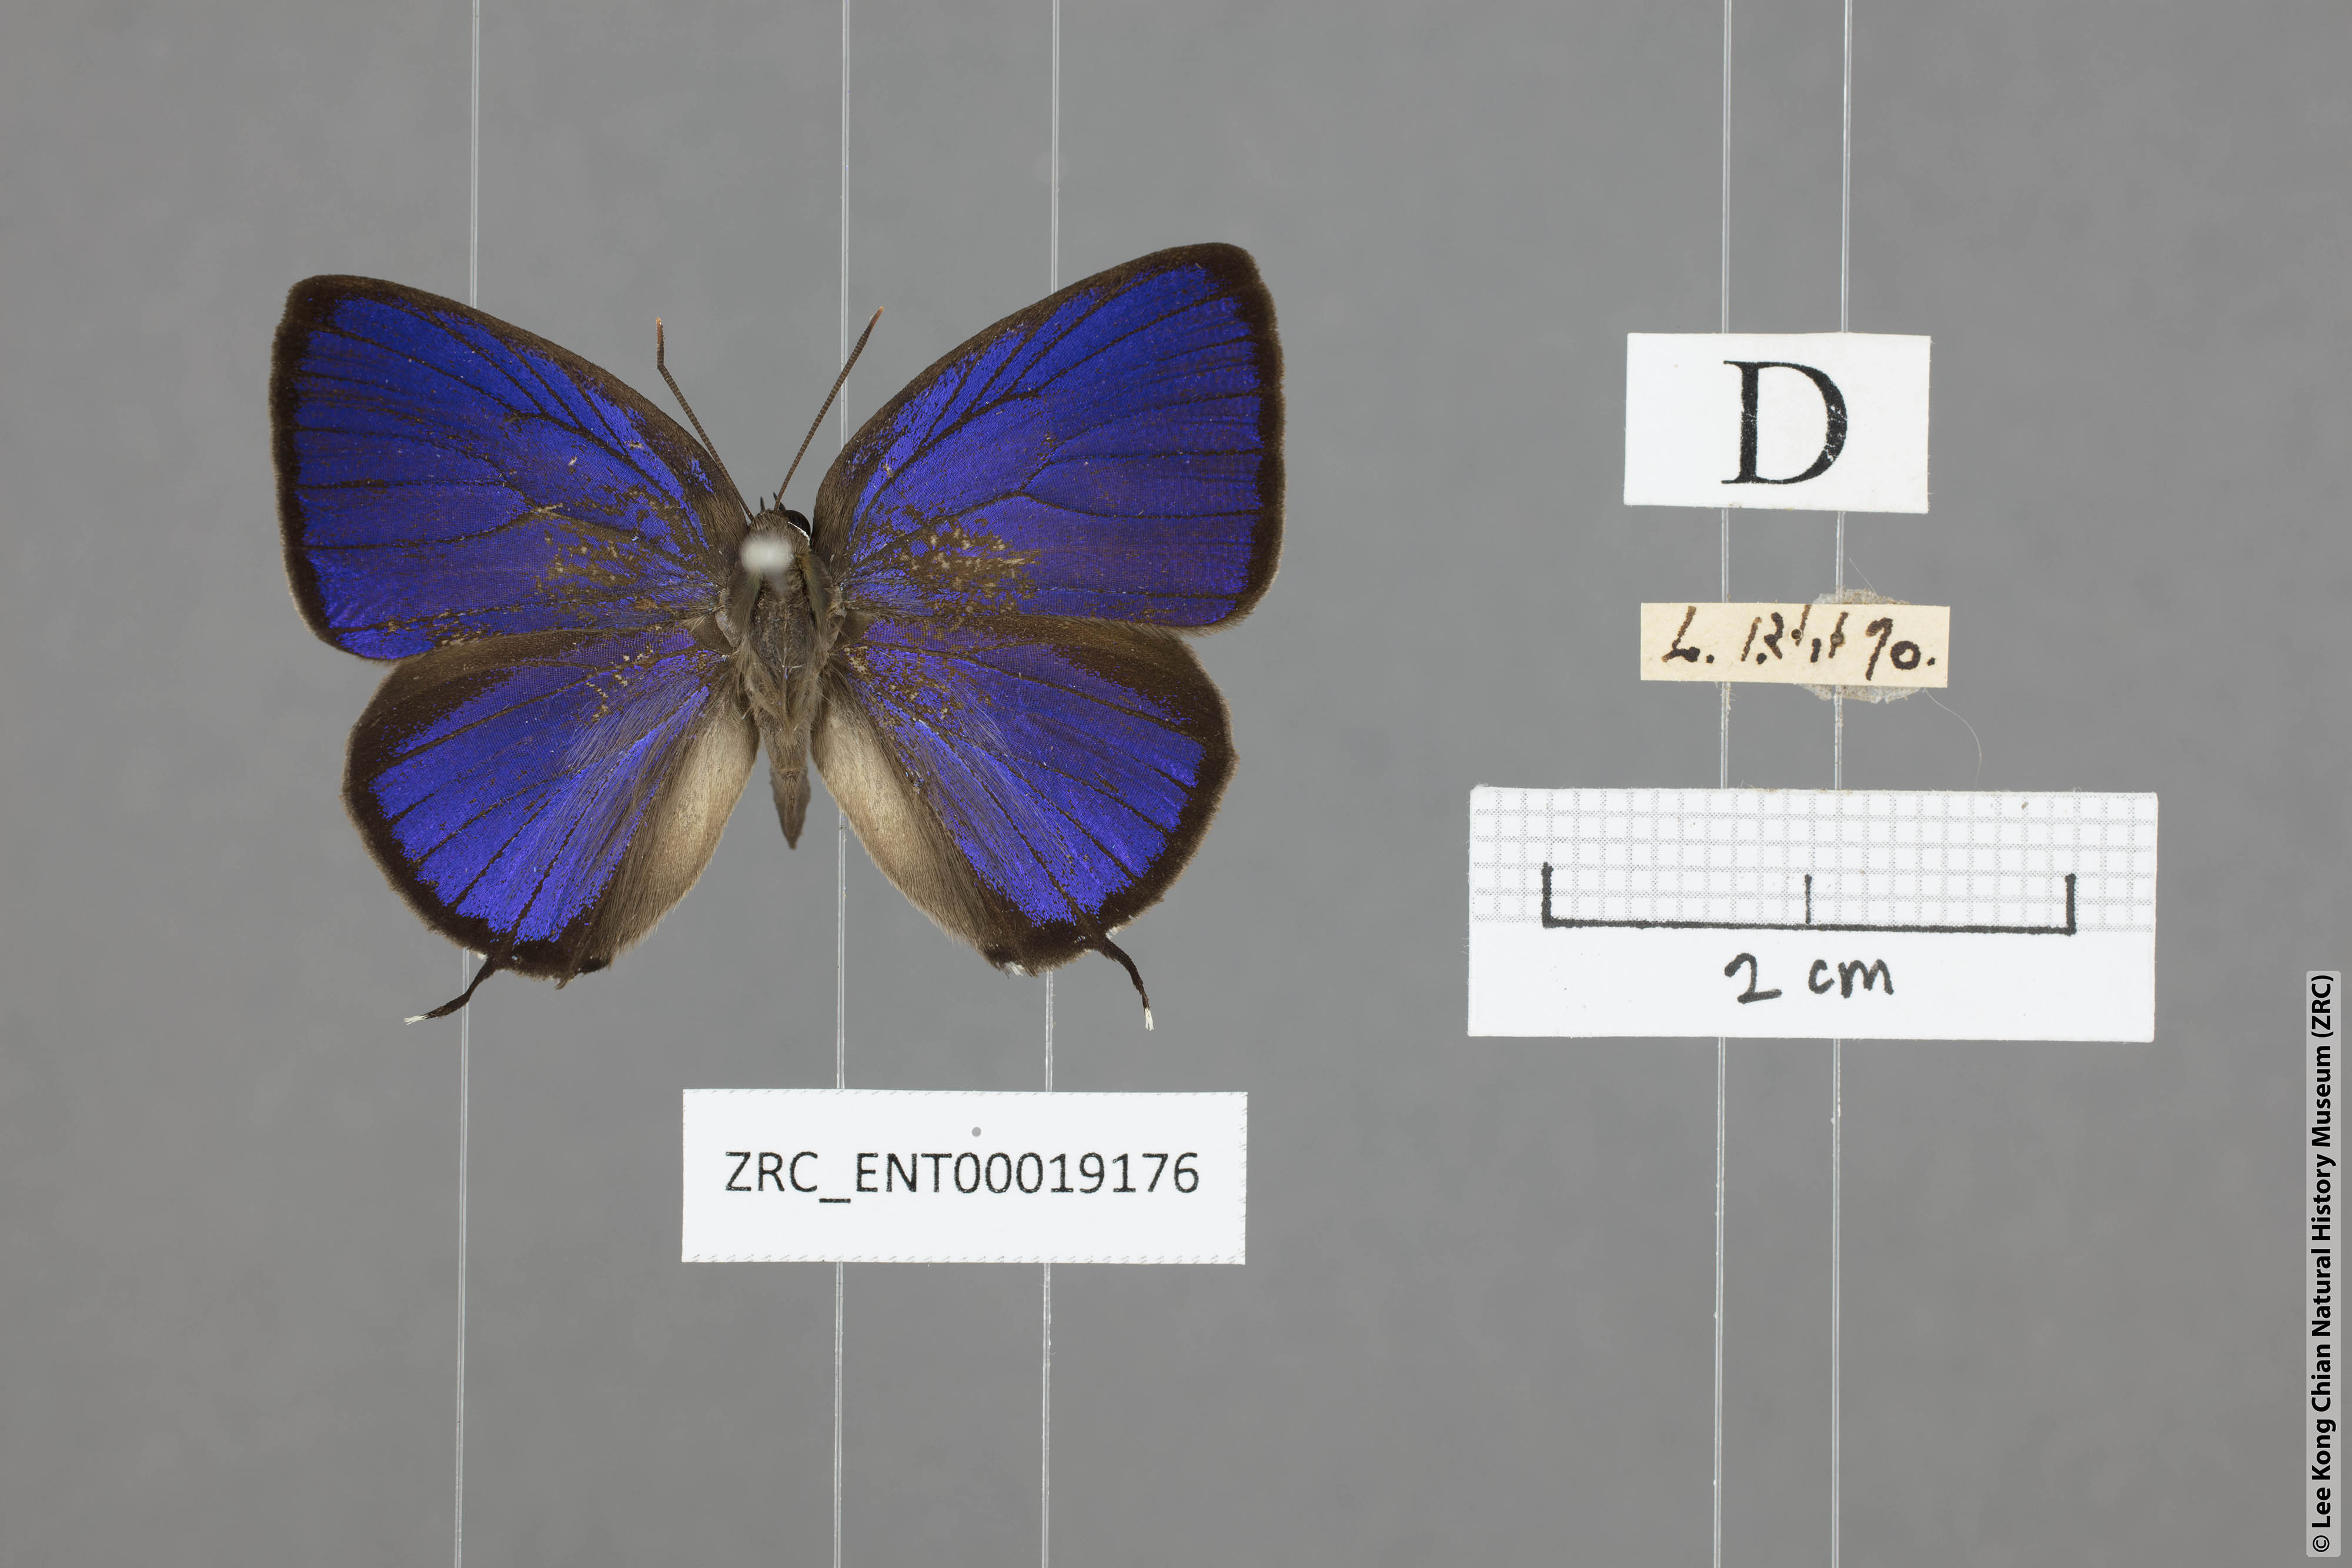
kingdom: Animalia
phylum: Arthropoda
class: Insecta
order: Lepidoptera
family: Lycaenidae
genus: Arhopala
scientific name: Arhopala ariana
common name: Pinkish-washed oakblue
